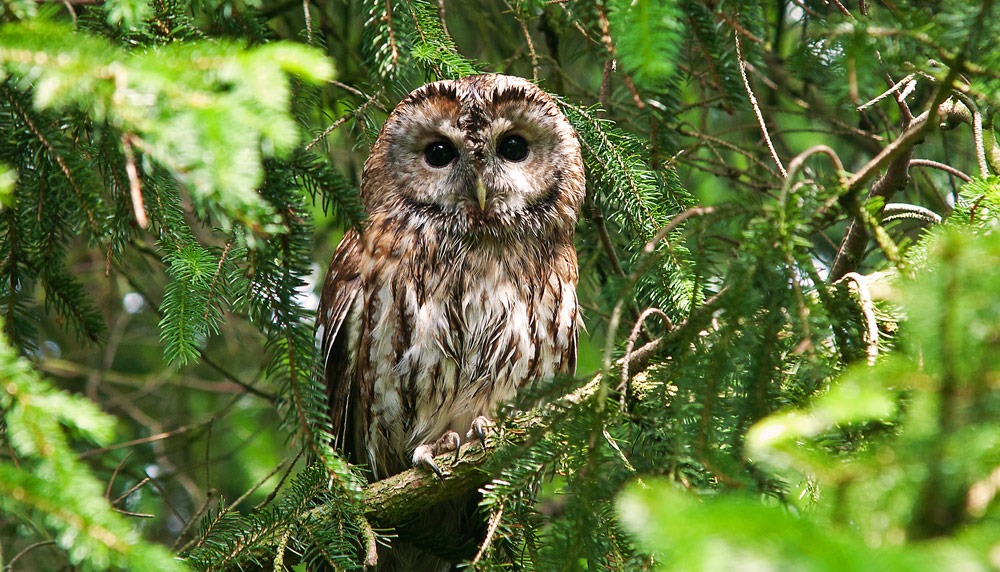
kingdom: Animalia
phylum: Chordata
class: Aves
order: Strigiformes
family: Strigidae
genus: Strix
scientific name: Strix aluco
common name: Natugle
